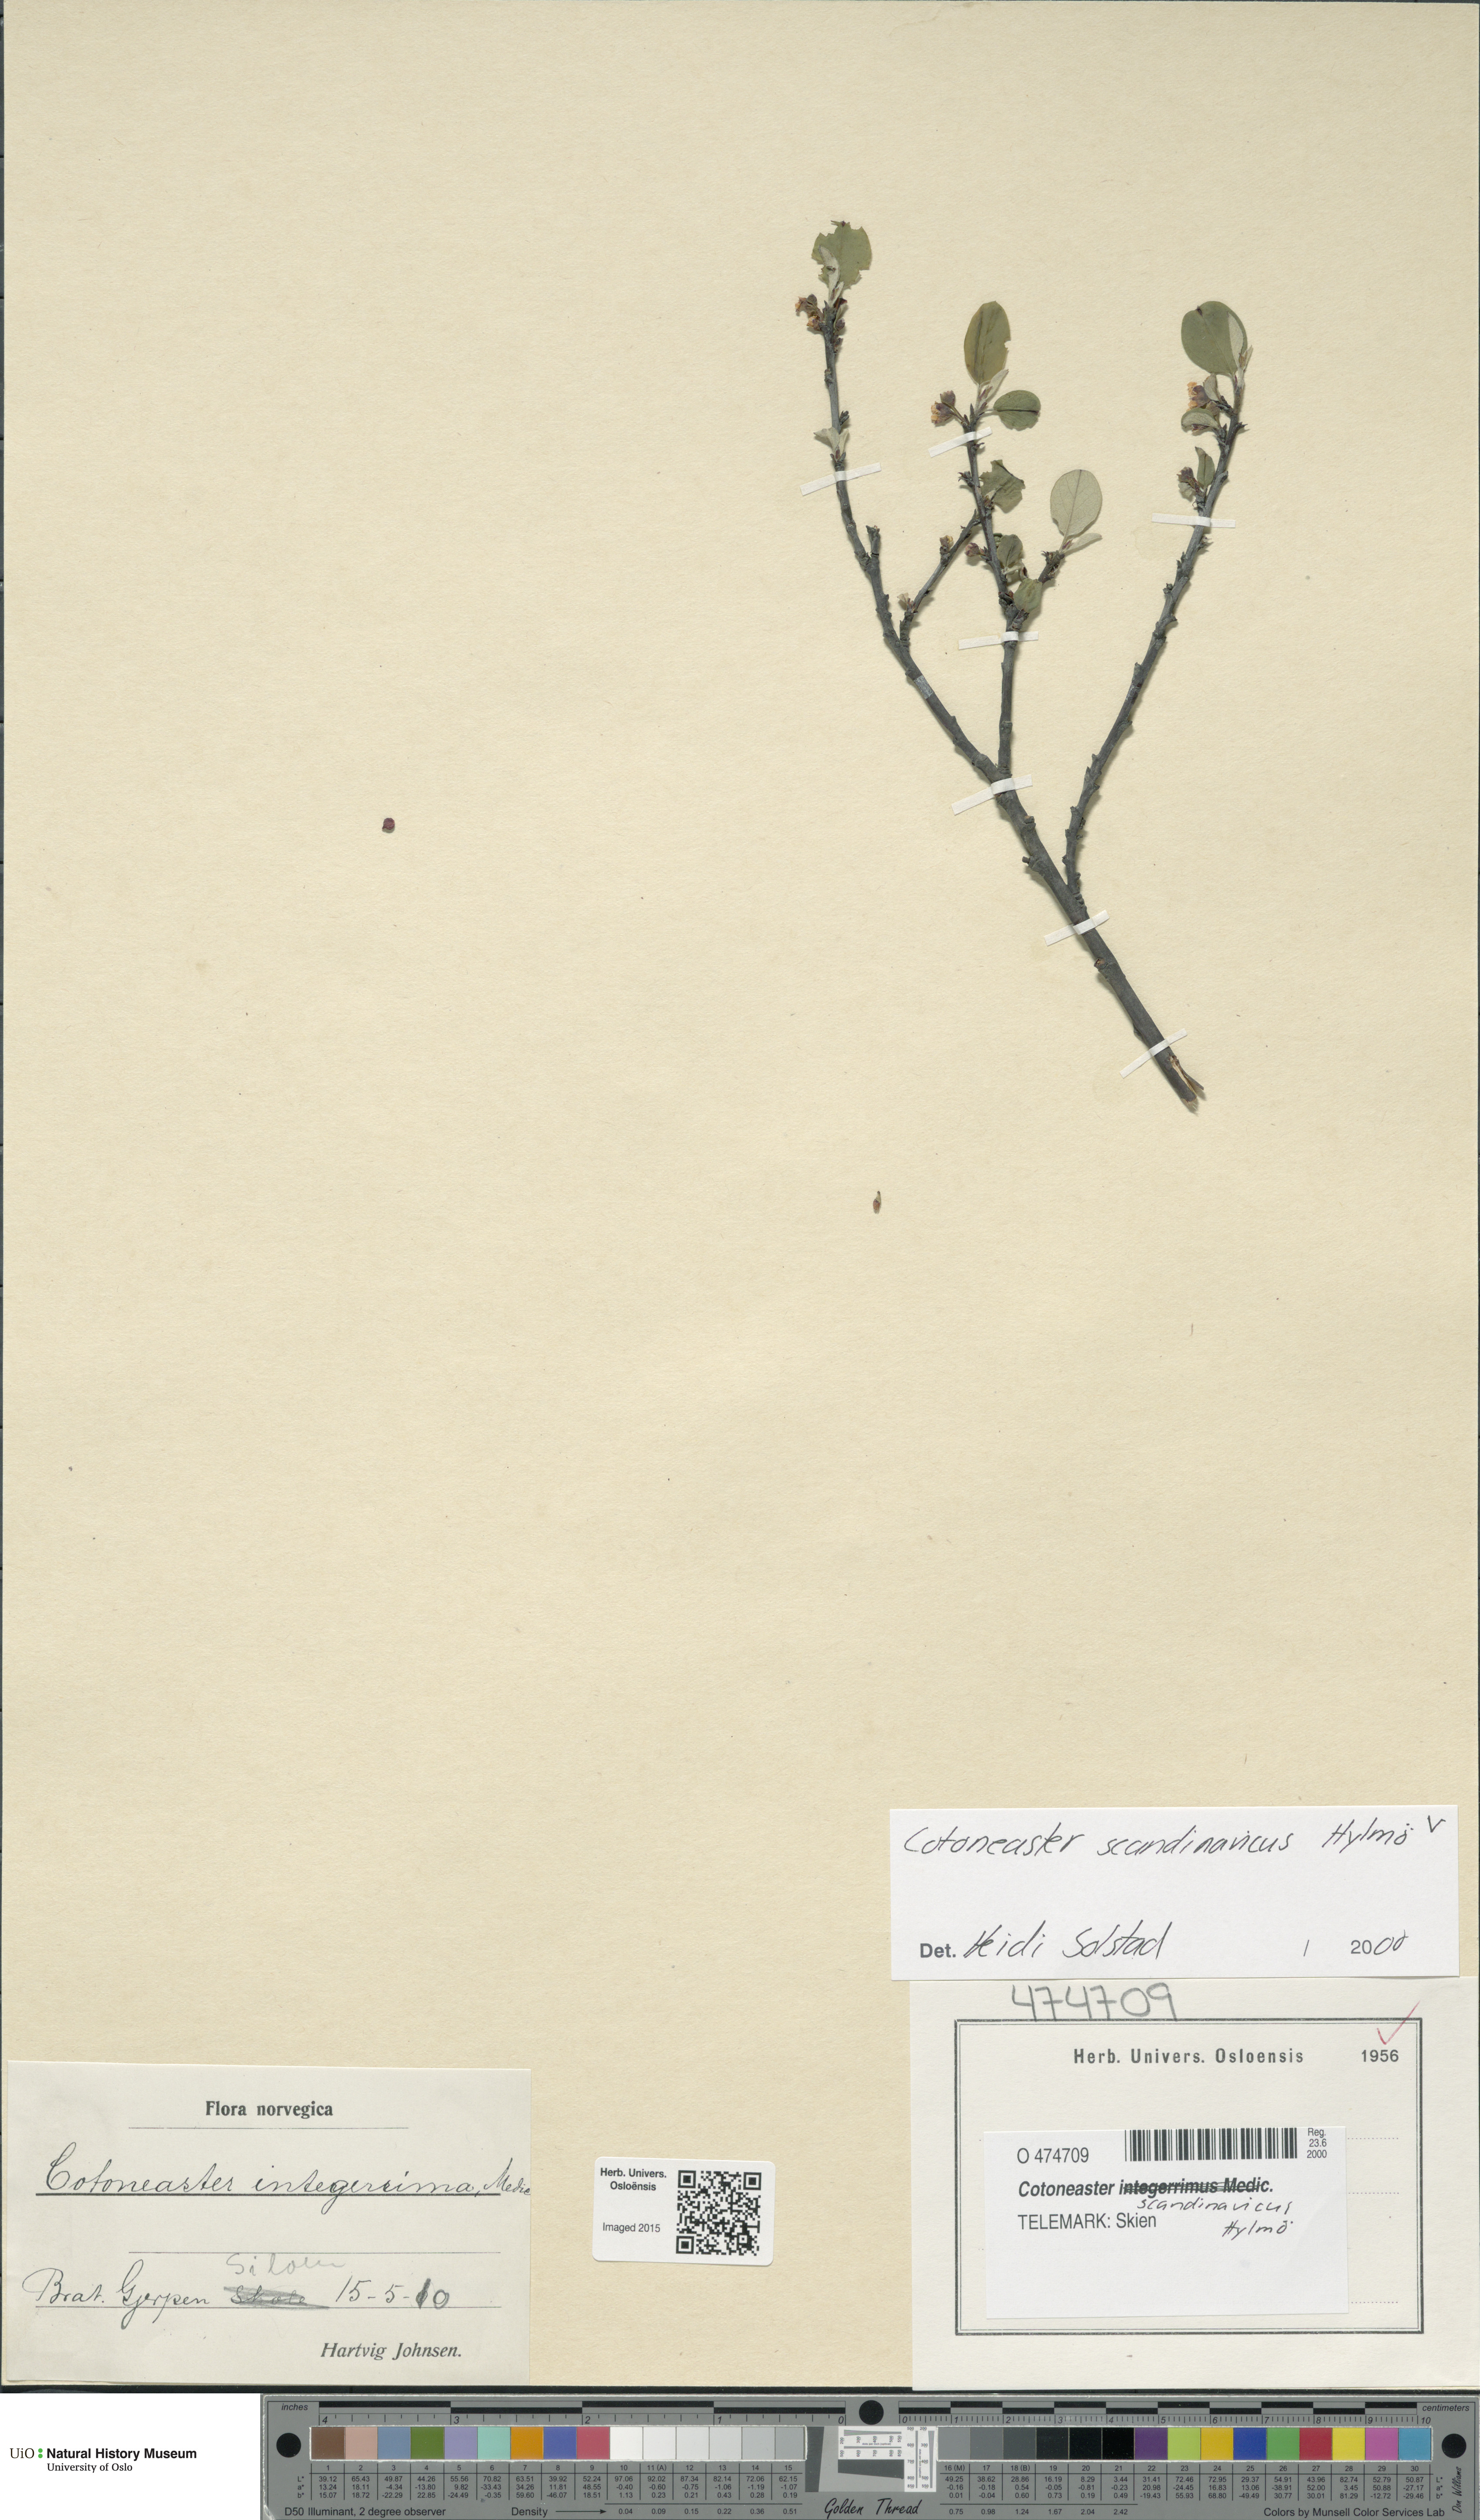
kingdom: Plantae
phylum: Tracheophyta
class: Magnoliopsida
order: Rosales
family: Rosaceae
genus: Cotoneaster
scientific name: Cotoneaster integerrimus
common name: Wild cotoneaster
